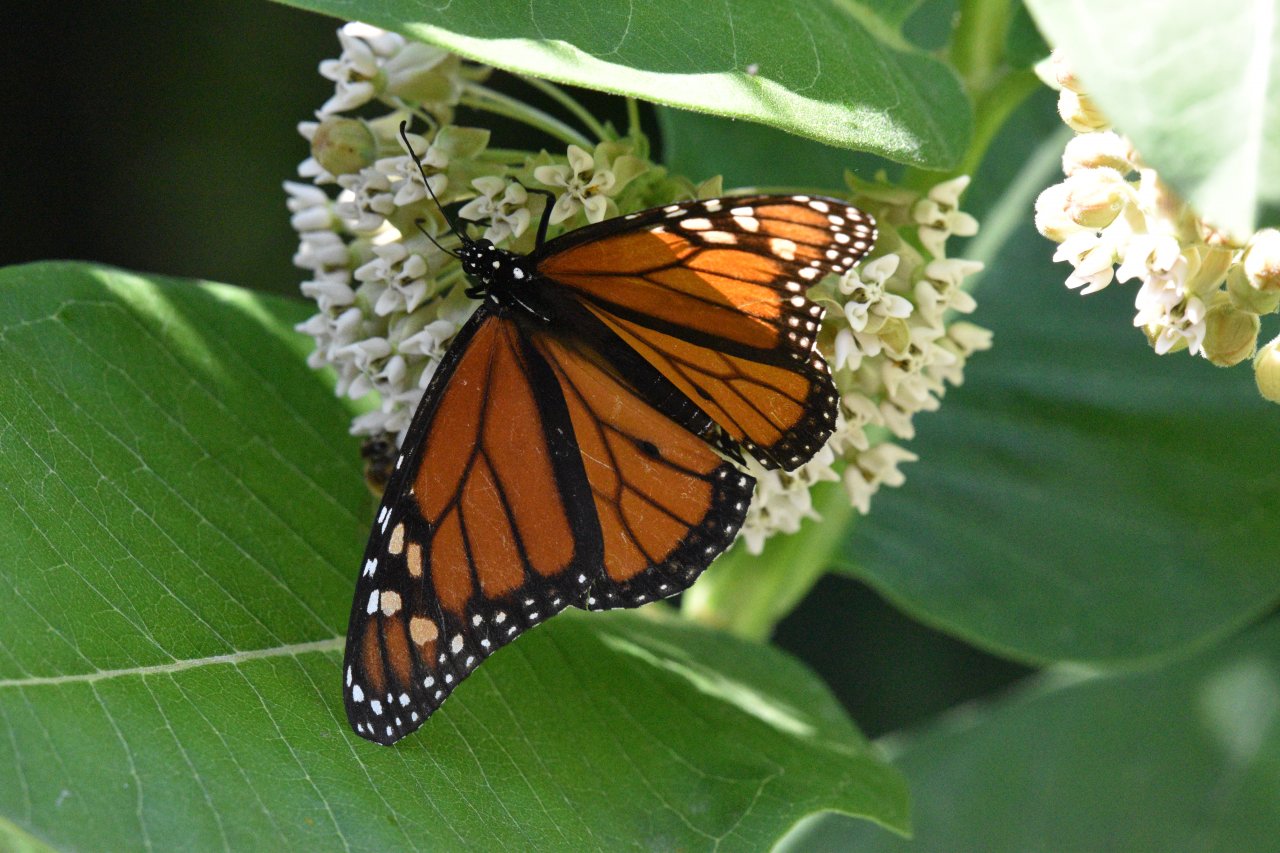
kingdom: Animalia
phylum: Arthropoda
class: Insecta
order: Lepidoptera
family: Nymphalidae
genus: Danaus
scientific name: Danaus plexippus
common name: Monarch
